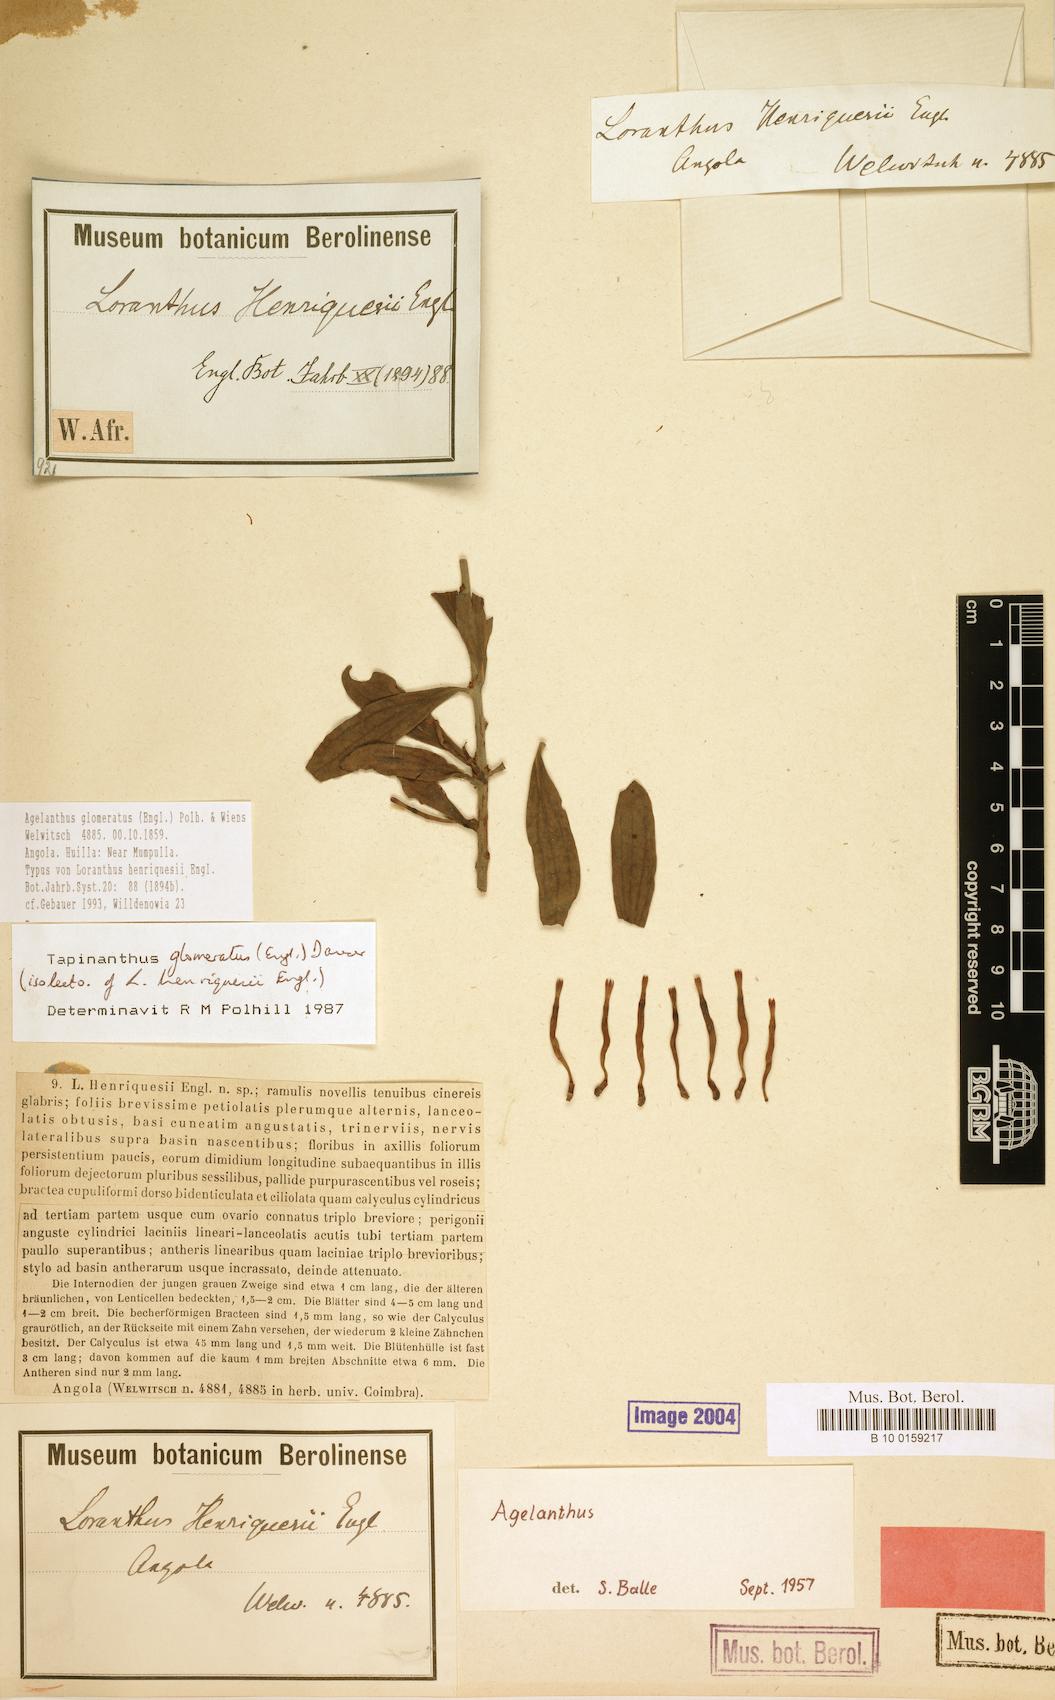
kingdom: Plantae
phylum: Tracheophyta
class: Magnoliopsida
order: Santalales
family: Loranthaceae
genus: Agelanthus
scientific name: Agelanthus glomeratus
